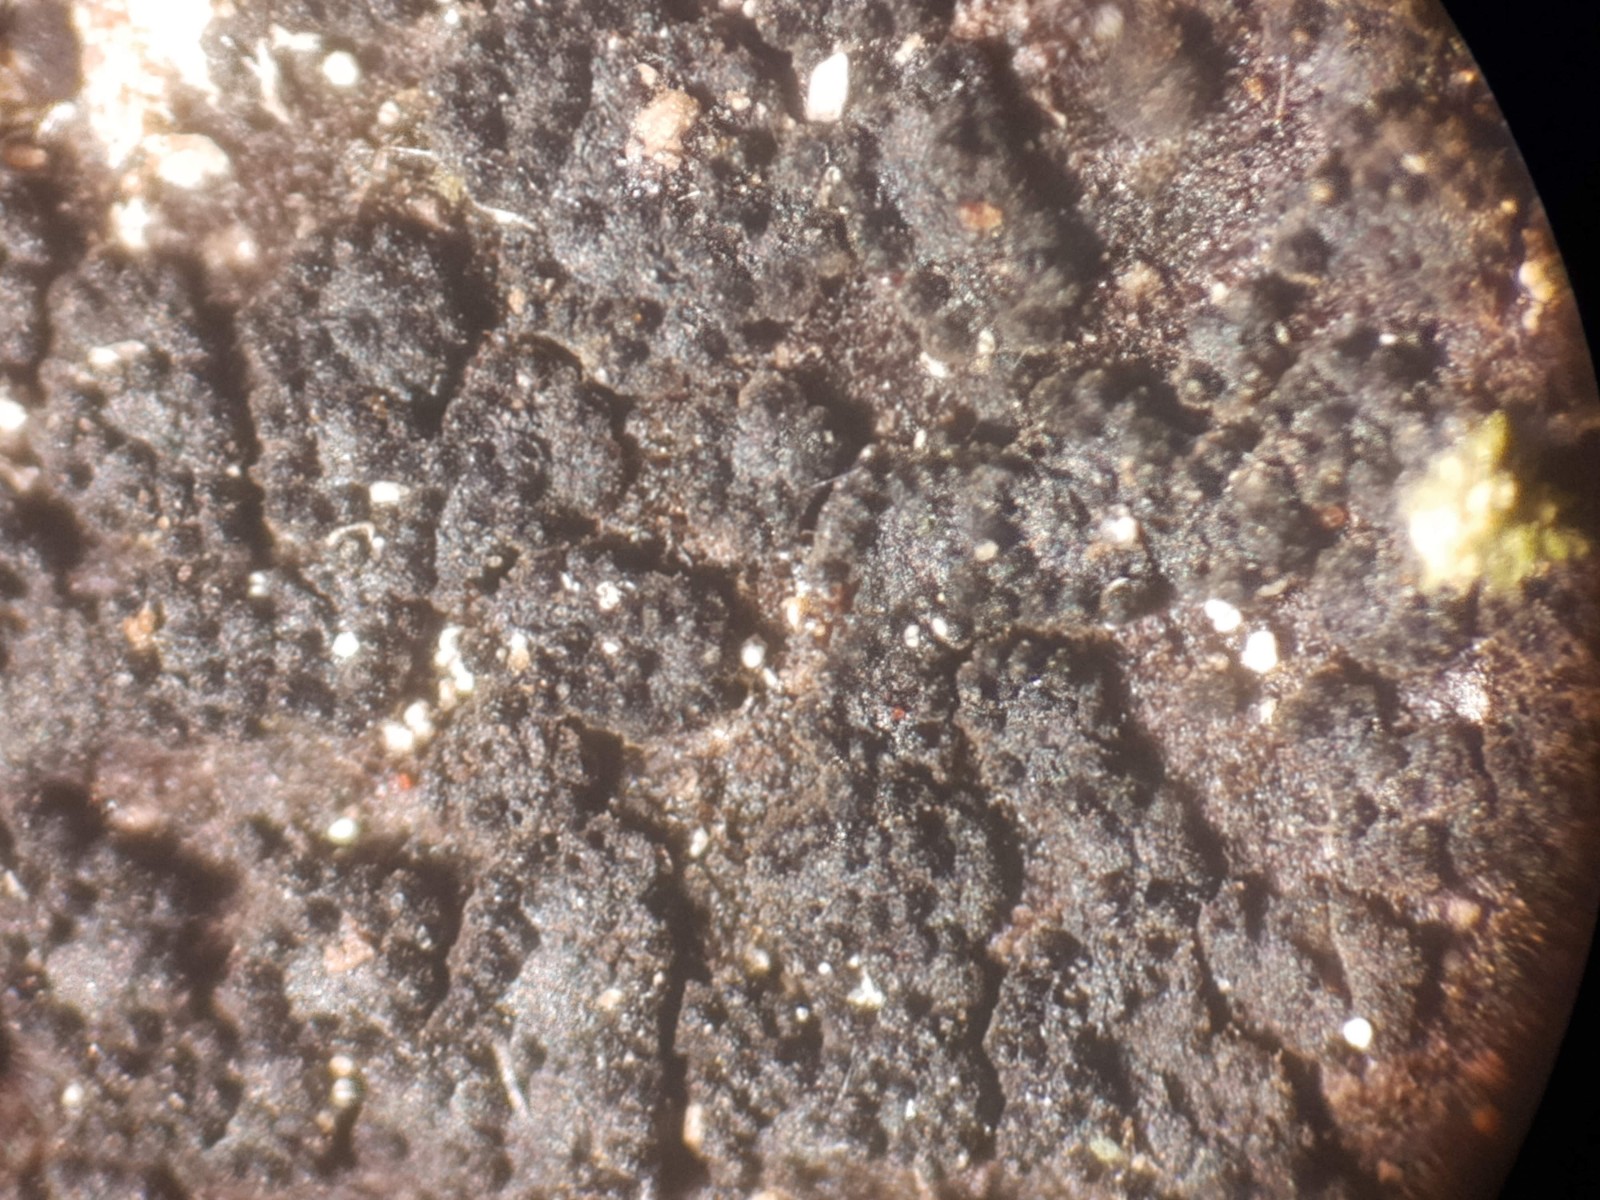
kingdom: Fungi
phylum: Ascomycota
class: Eurotiomycetes
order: Chaetothyriales
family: Herpotrichiellaceae
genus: Capronia
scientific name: Capronia nigerrima
